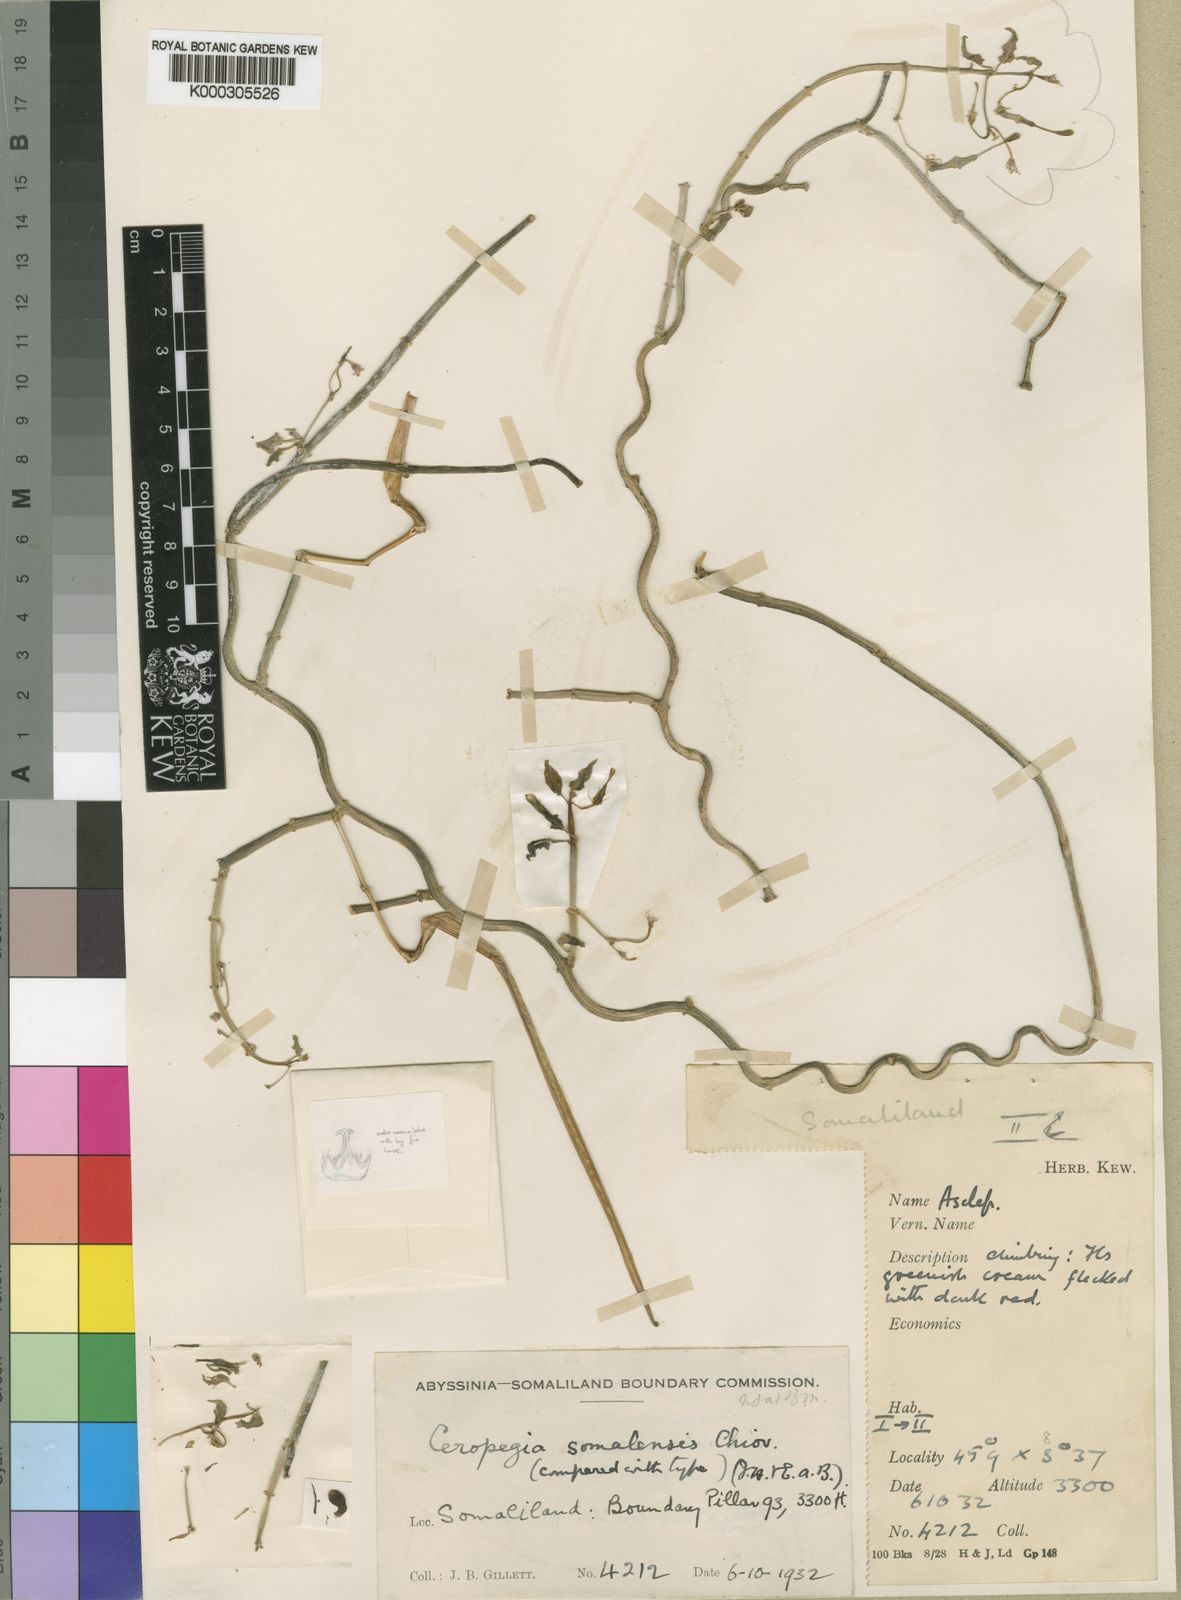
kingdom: Plantae
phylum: Tracheophyta
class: Magnoliopsida
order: Gentianales
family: Apocynaceae
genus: Ceropegia
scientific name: Ceropegia somalensis
